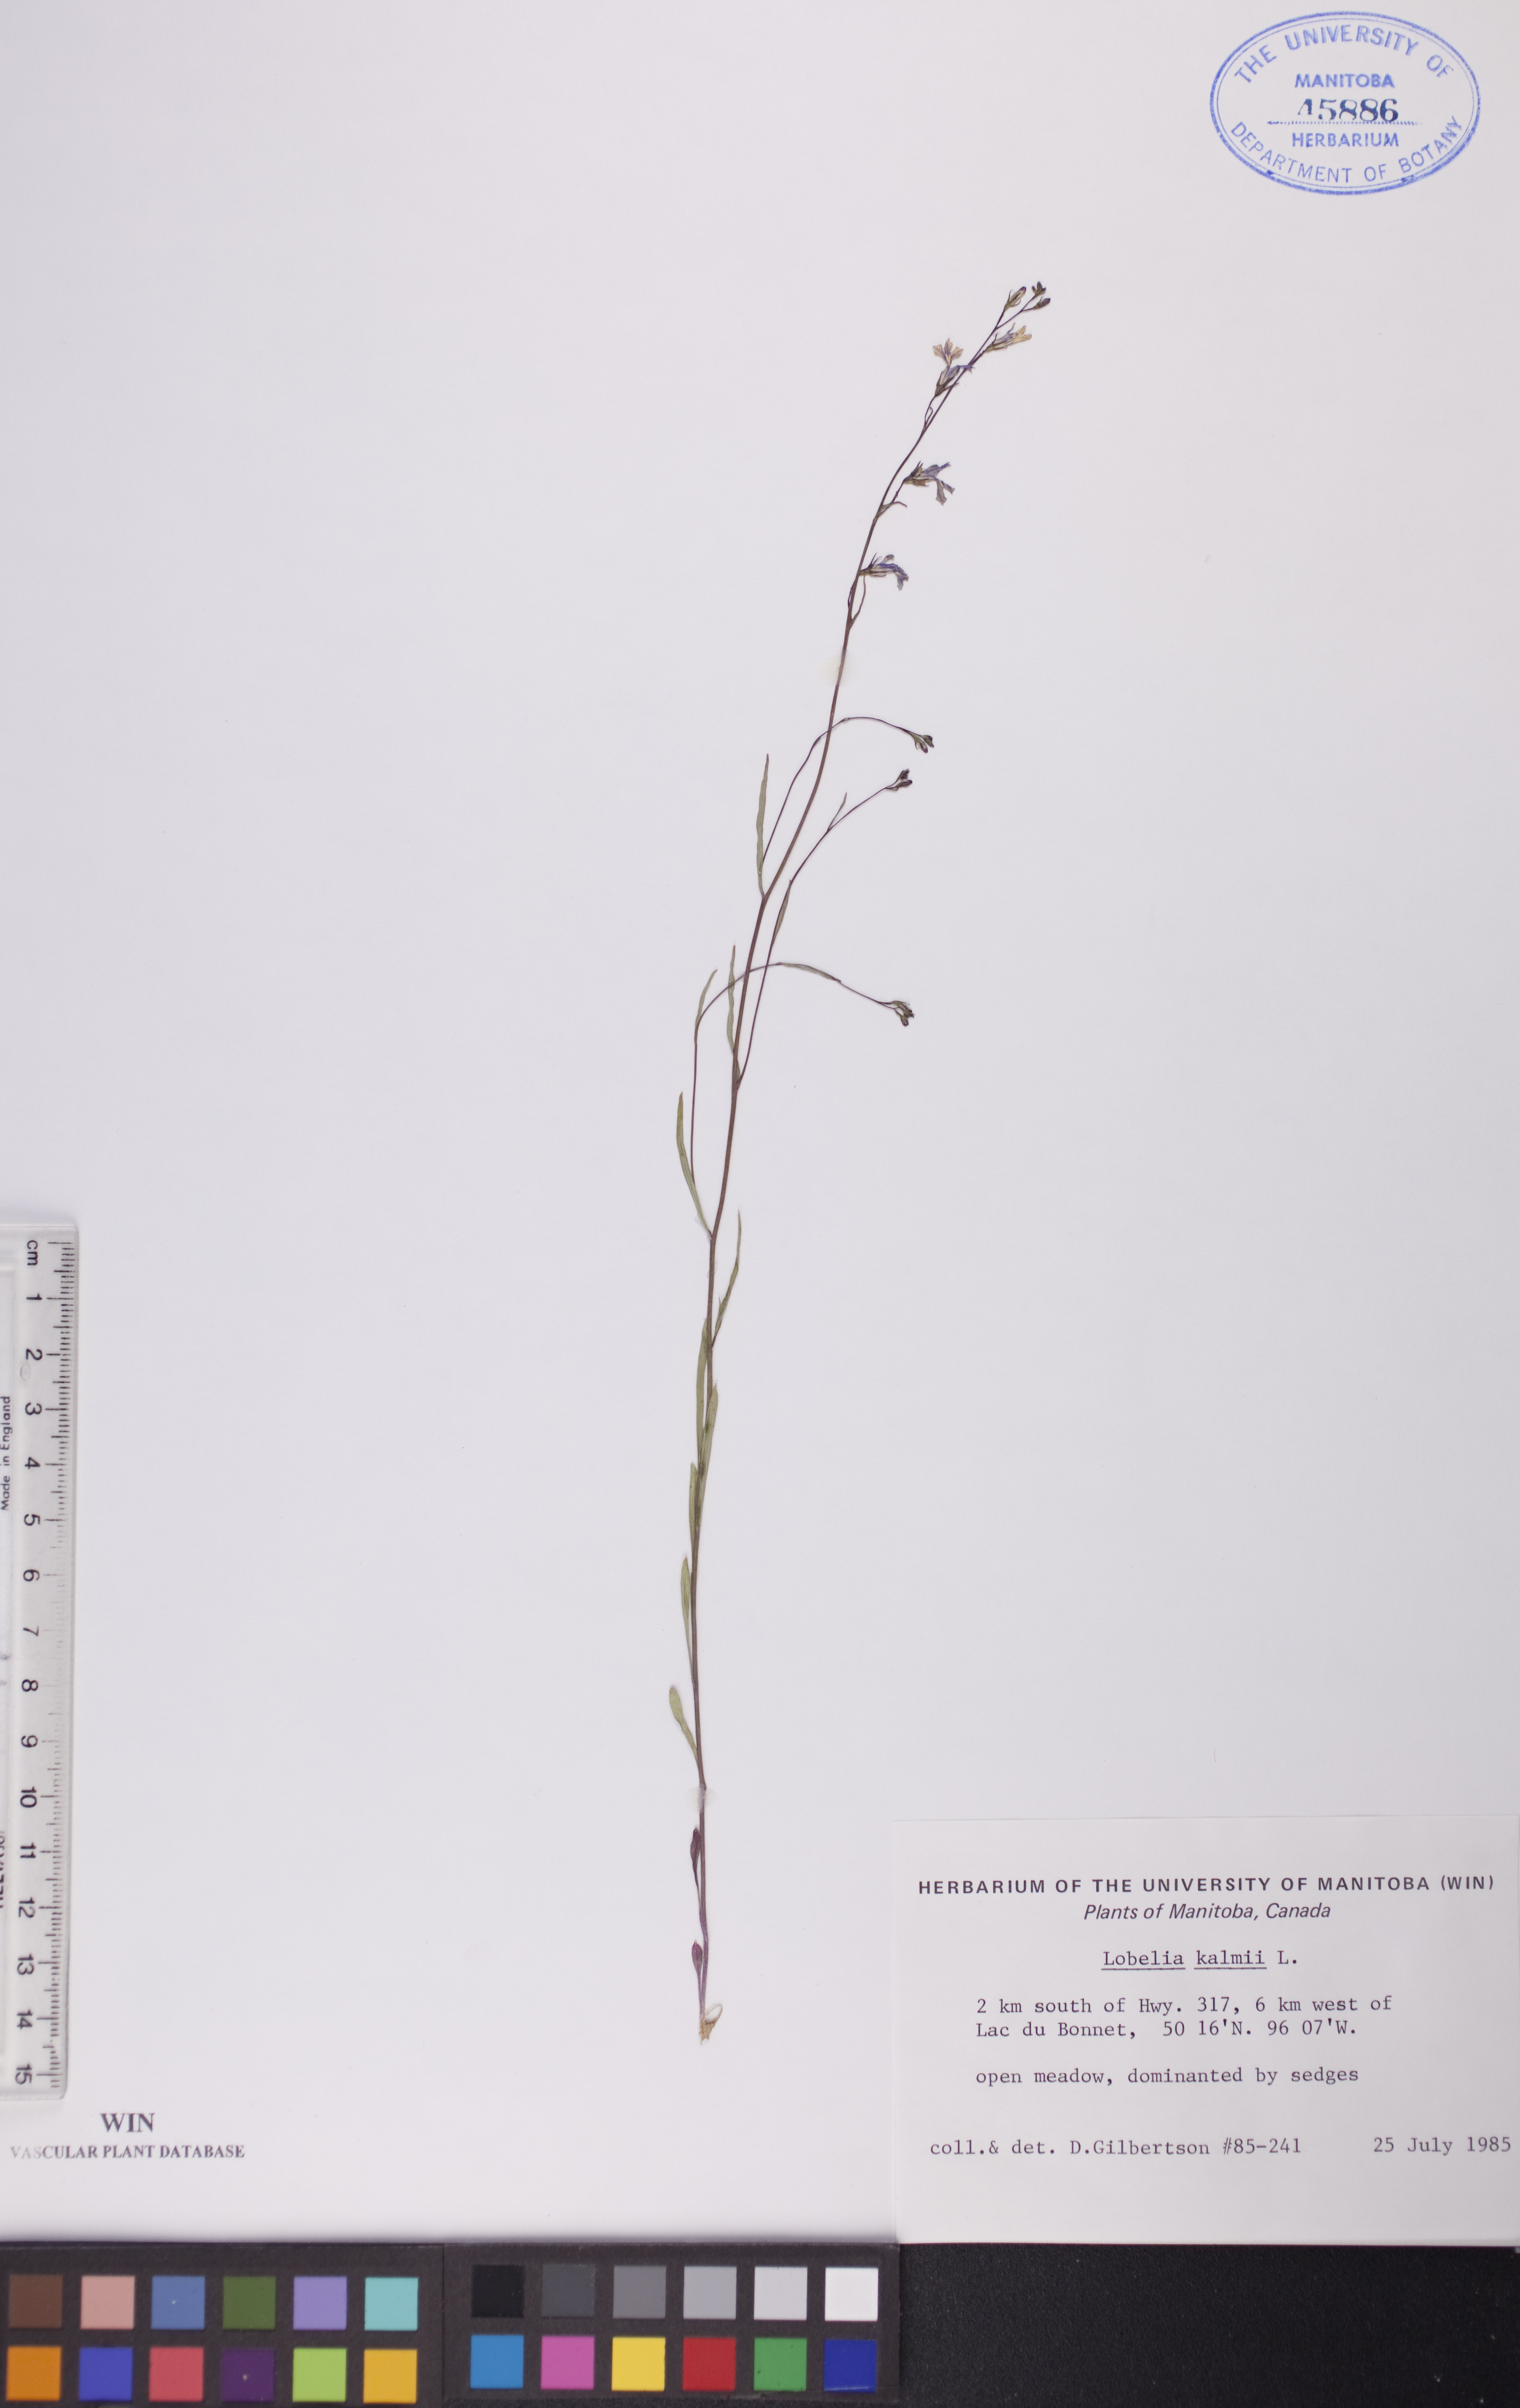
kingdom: Plantae
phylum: Tracheophyta
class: Magnoliopsida
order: Asterales
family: Campanulaceae
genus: Lobelia
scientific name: Lobelia kalmii
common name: Kalm's lobelia
